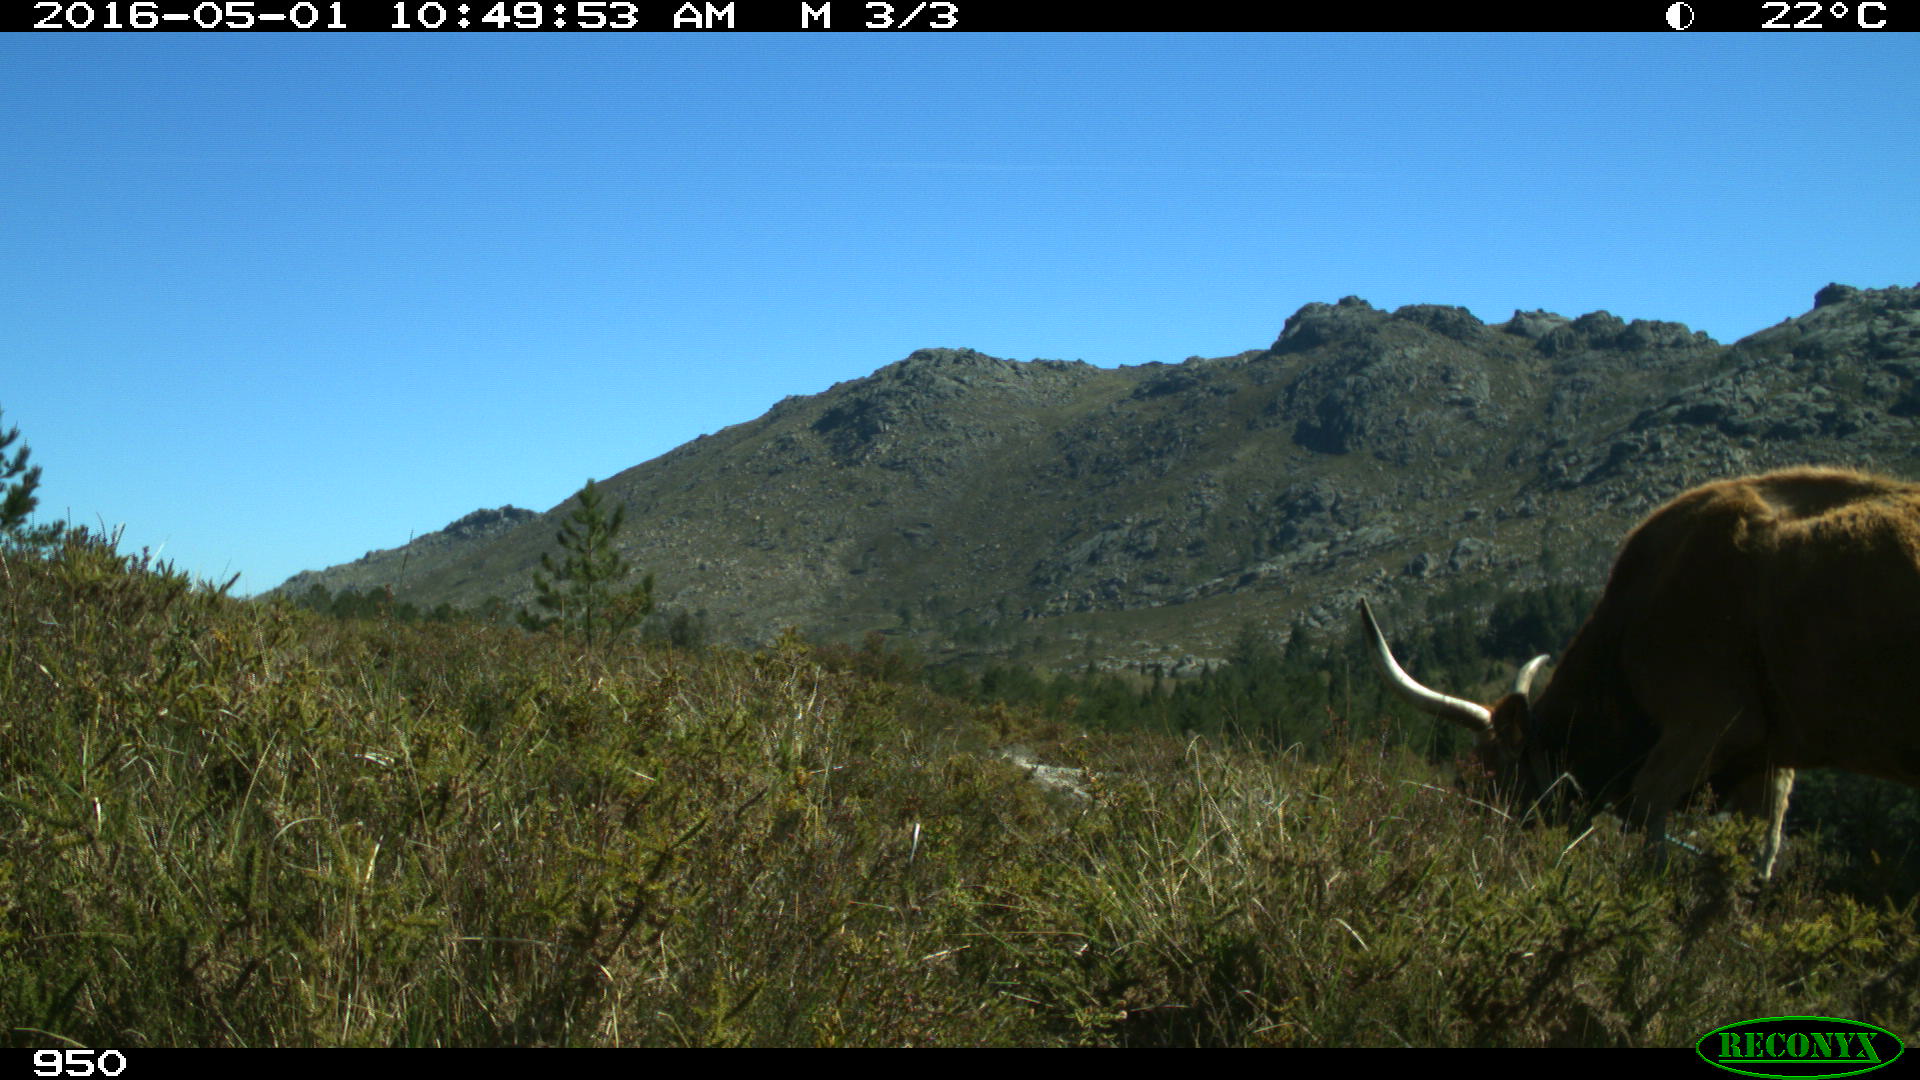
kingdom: Animalia
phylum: Chordata
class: Mammalia
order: Artiodactyla
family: Bovidae
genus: Bos
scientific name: Bos taurus
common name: Domesticated cattle
